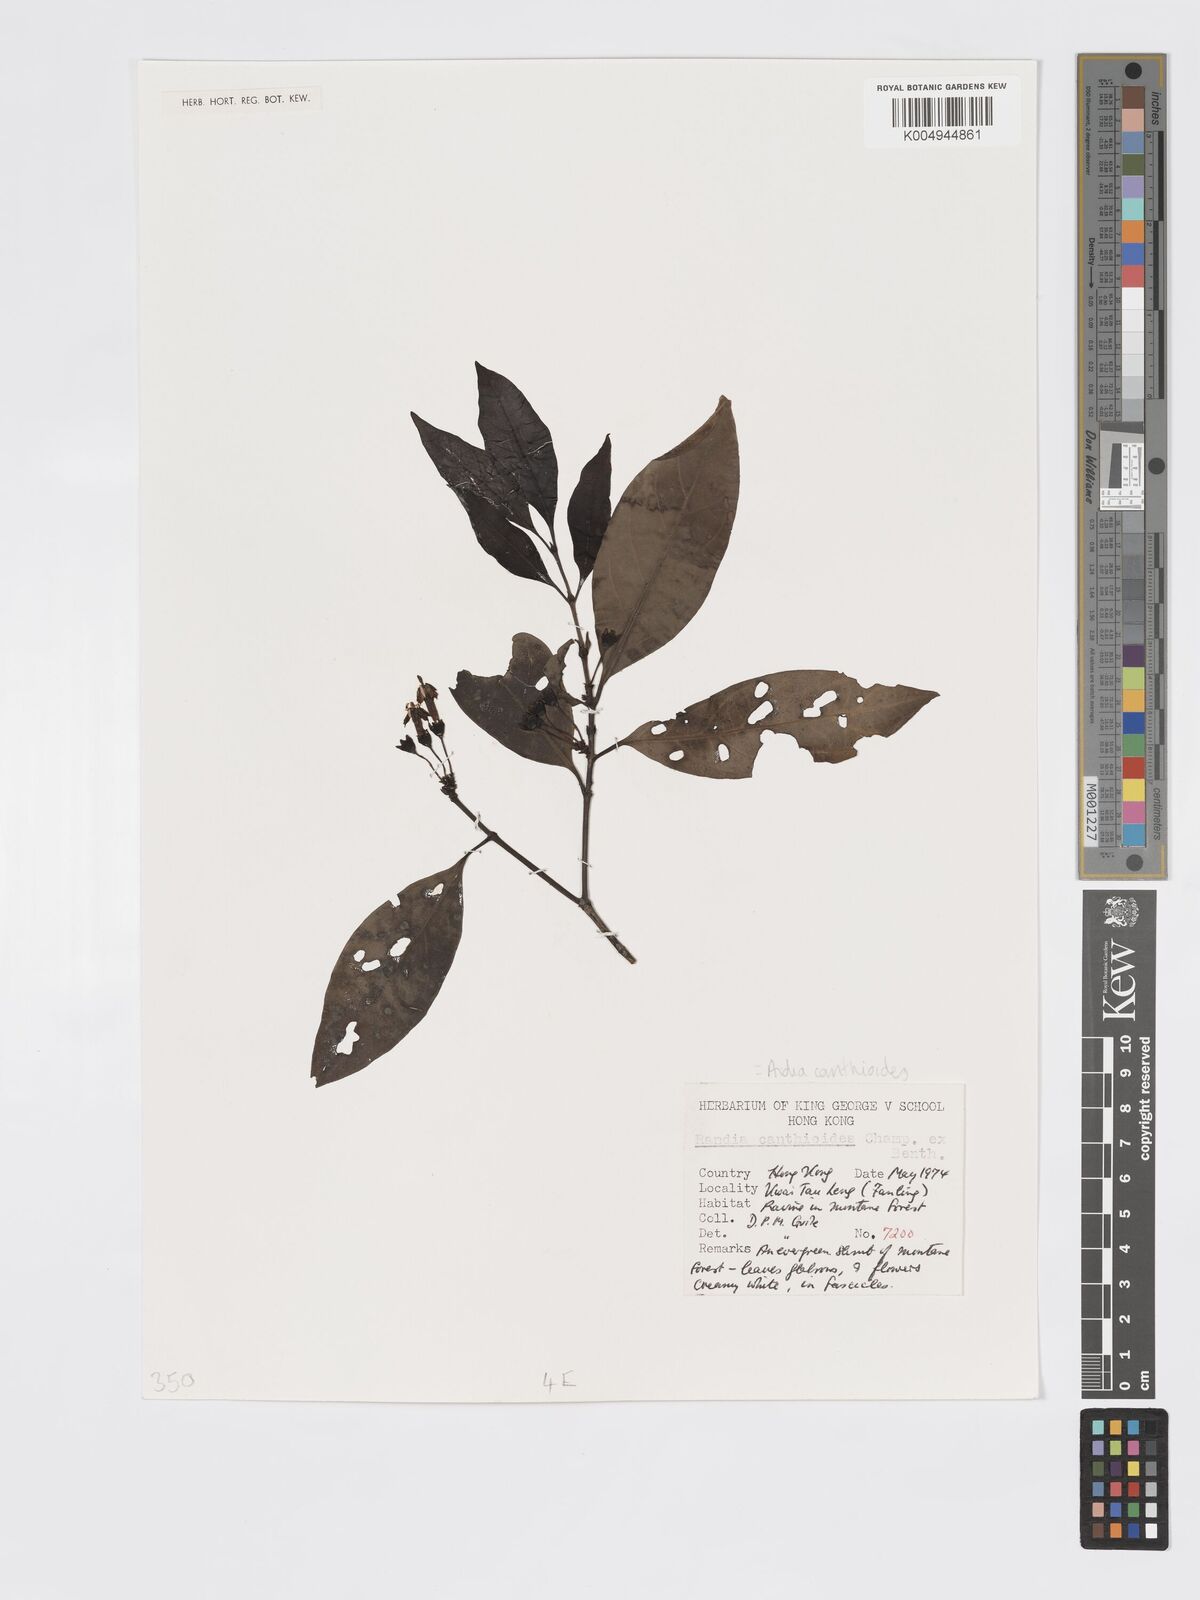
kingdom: Plantae
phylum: Tracheophyta
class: Magnoliopsida
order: Gentianales
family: Rubiaceae
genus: Aidia
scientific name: Aidia canthioides
